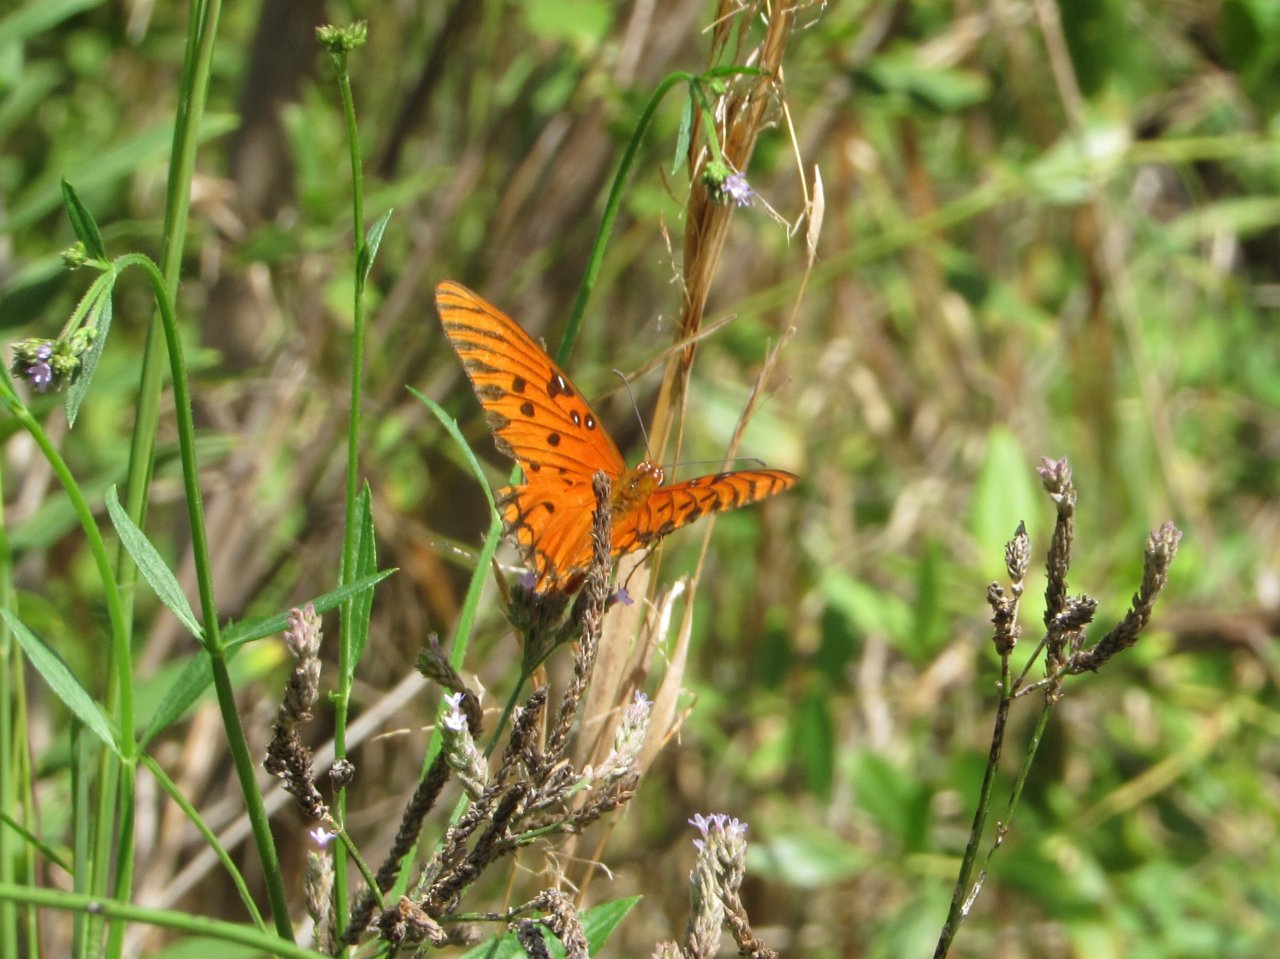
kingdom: Animalia
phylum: Arthropoda
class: Insecta
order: Lepidoptera
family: Nymphalidae
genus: Dione
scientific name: Dione vanillae
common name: Gulf Fritillary
